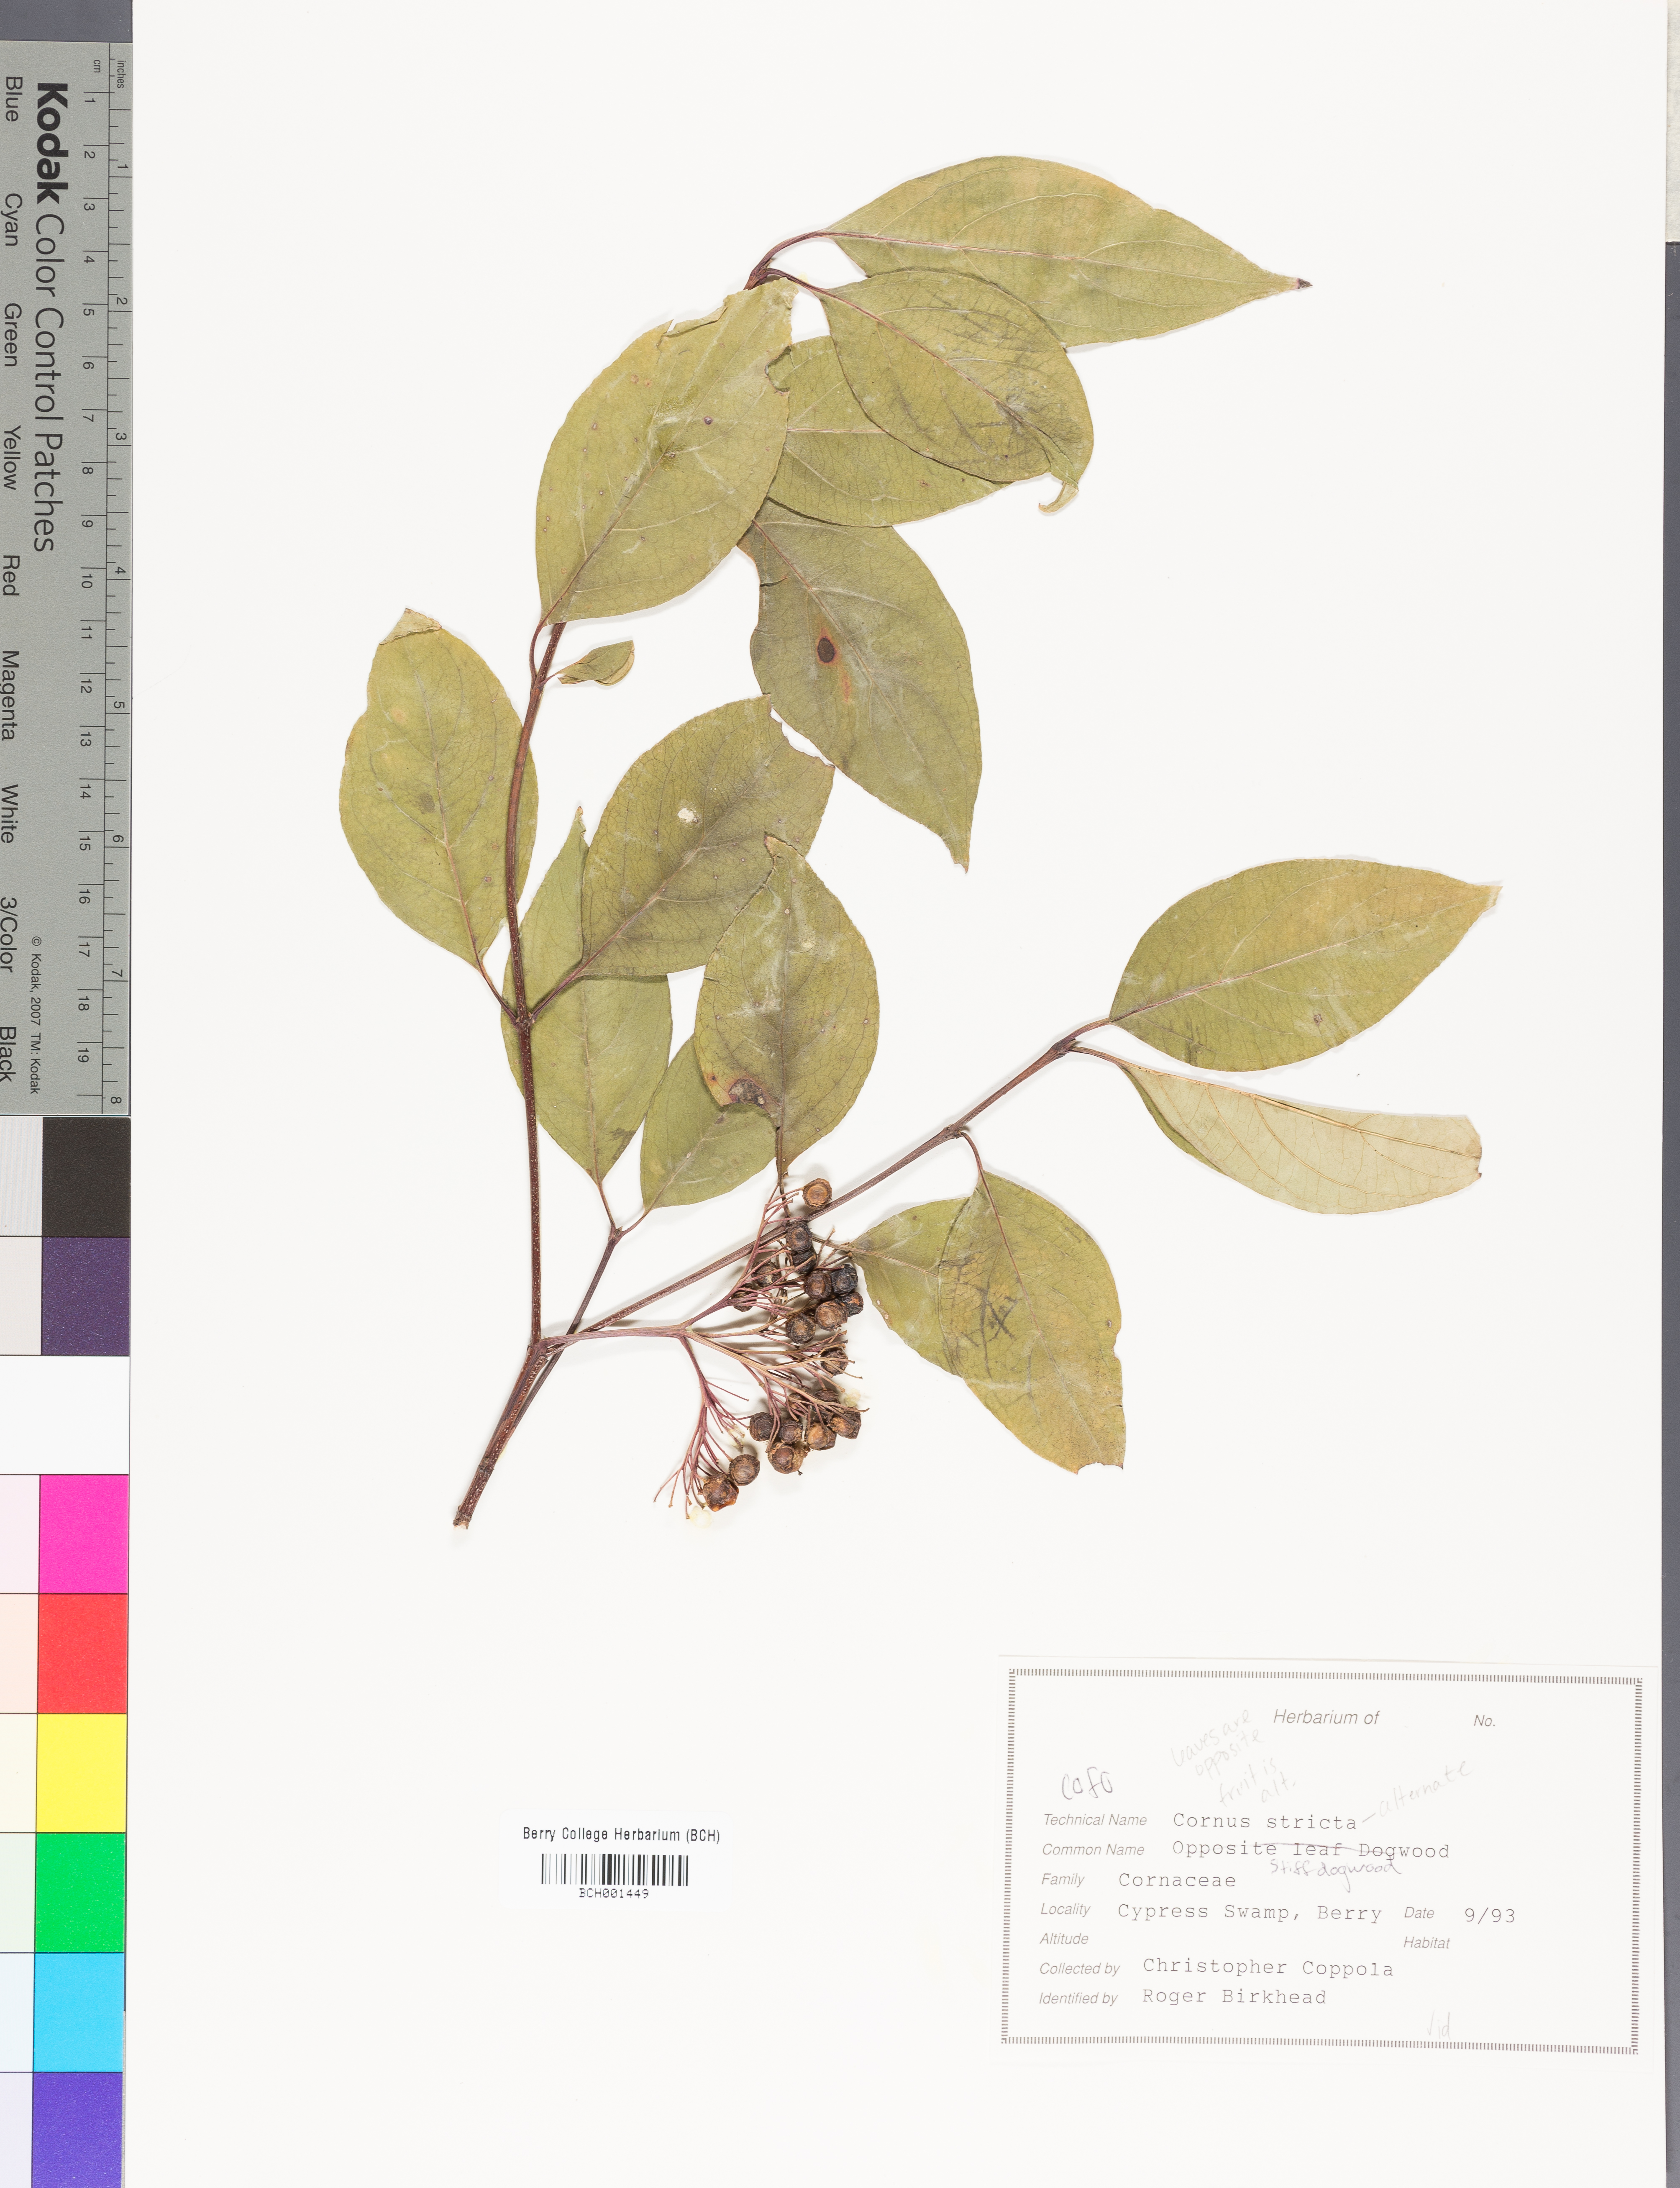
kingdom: Plantae
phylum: Tracheophyta
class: Magnoliopsida
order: Cornales
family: Cornaceae
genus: Cornus
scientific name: Cornus foemina
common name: Swamp dogwood
